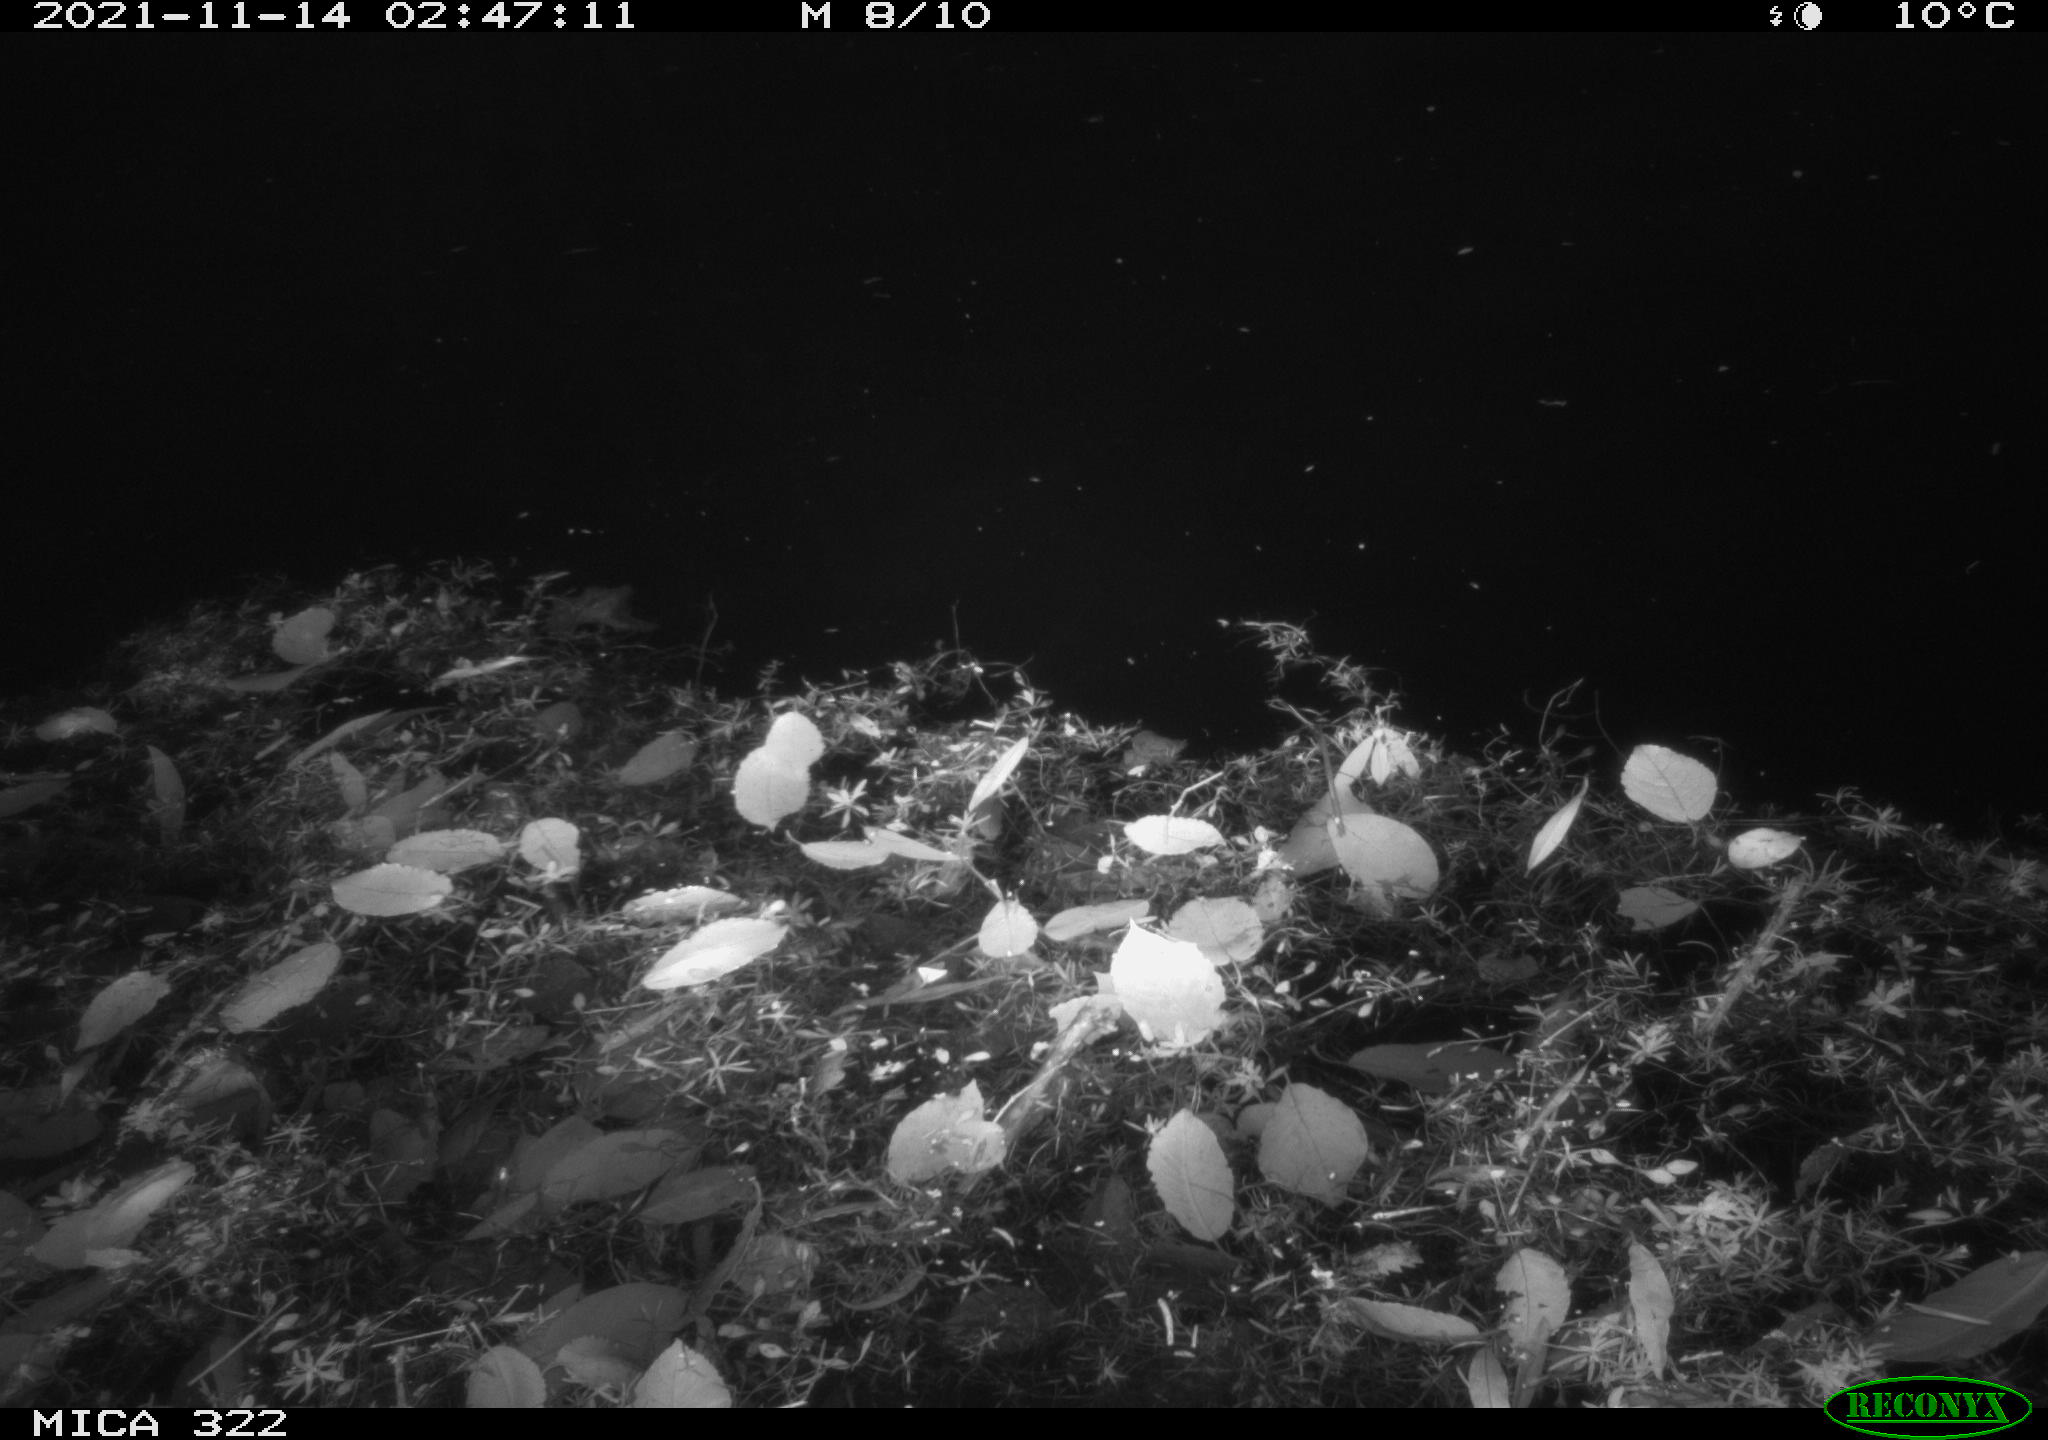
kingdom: Animalia
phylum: Chordata
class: Mammalia
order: Rodentia
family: Muridae
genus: Rattus
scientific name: Rattus norvegicus
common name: Brown rat
